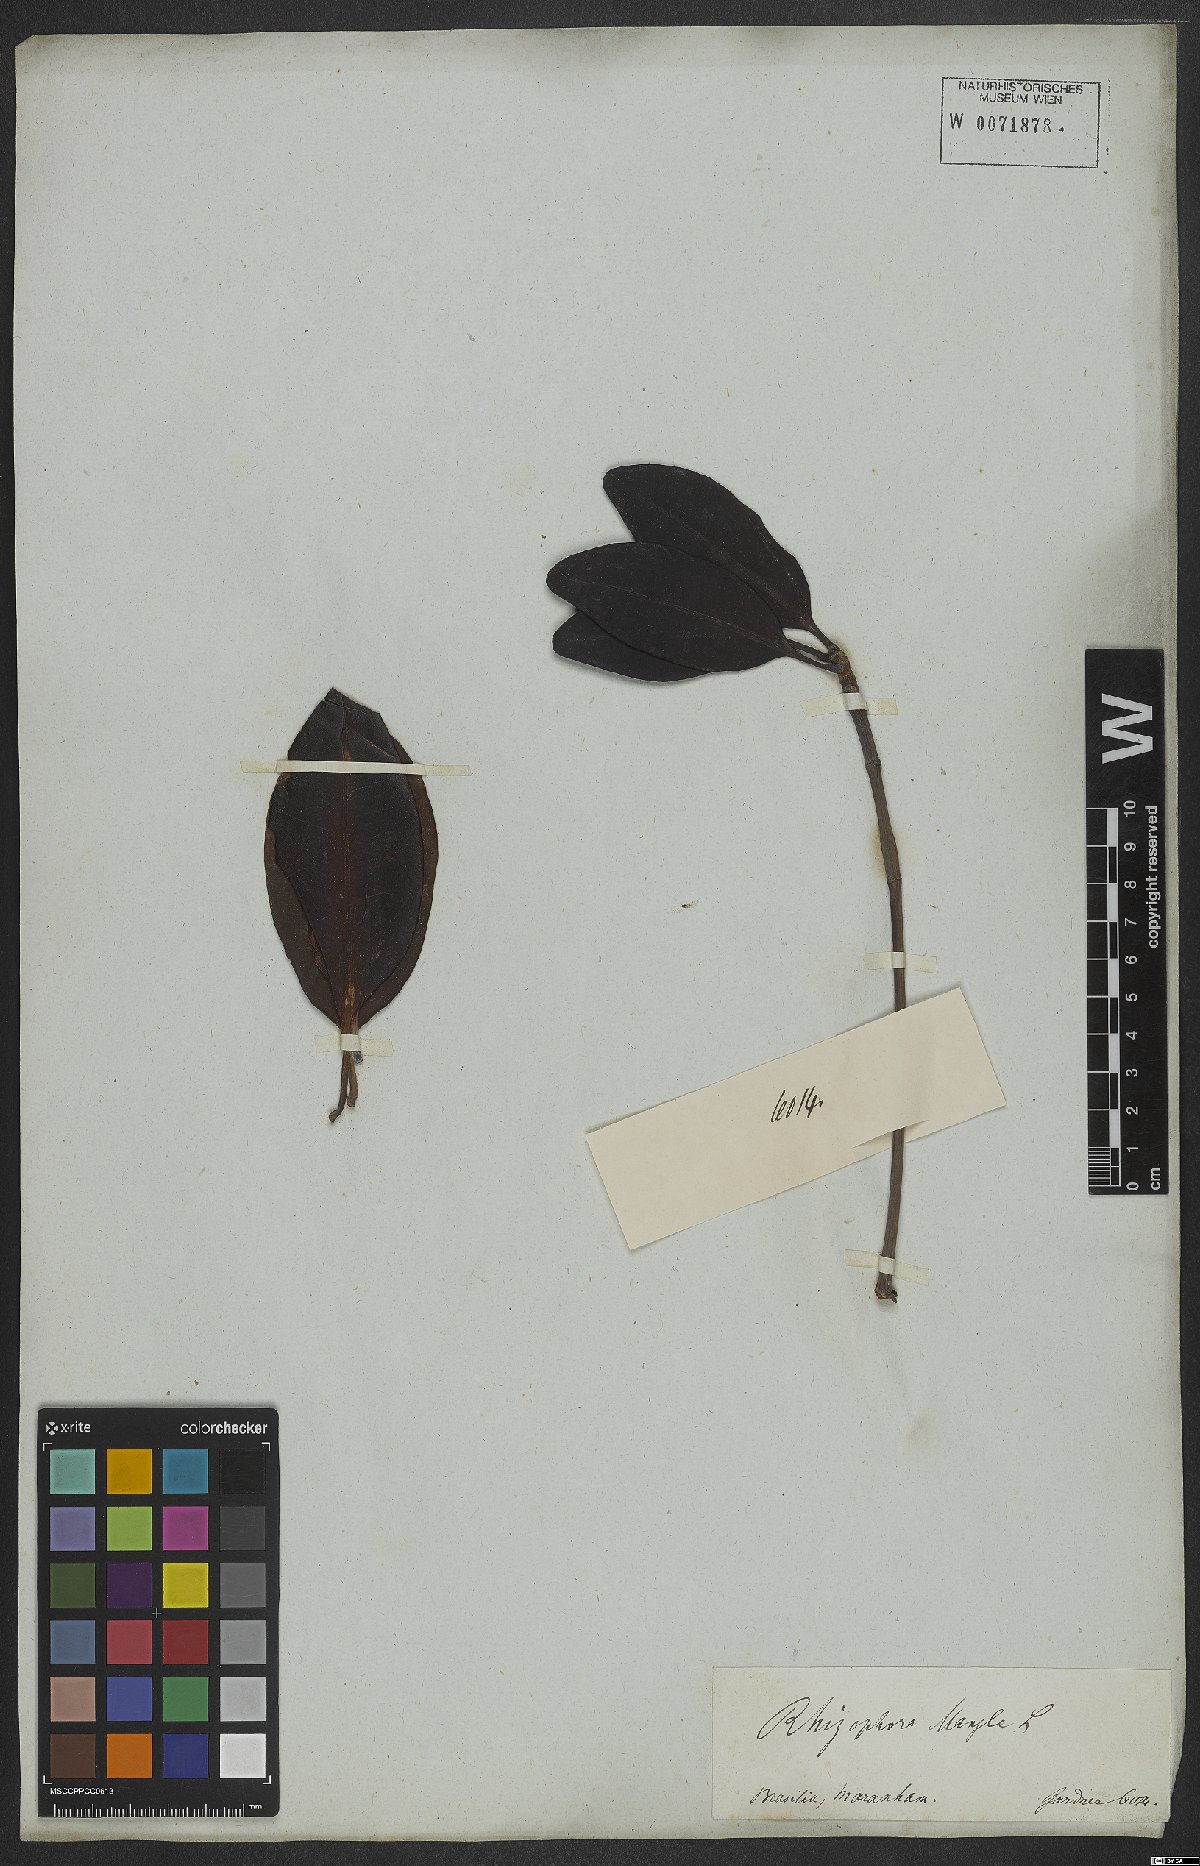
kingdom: Plantae
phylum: Tracheophyta
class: Magnoliopsida
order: Malpighiales
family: Rhizophoraceae
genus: Rhizophora
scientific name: Rhizophora mangle
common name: Red mangrove
